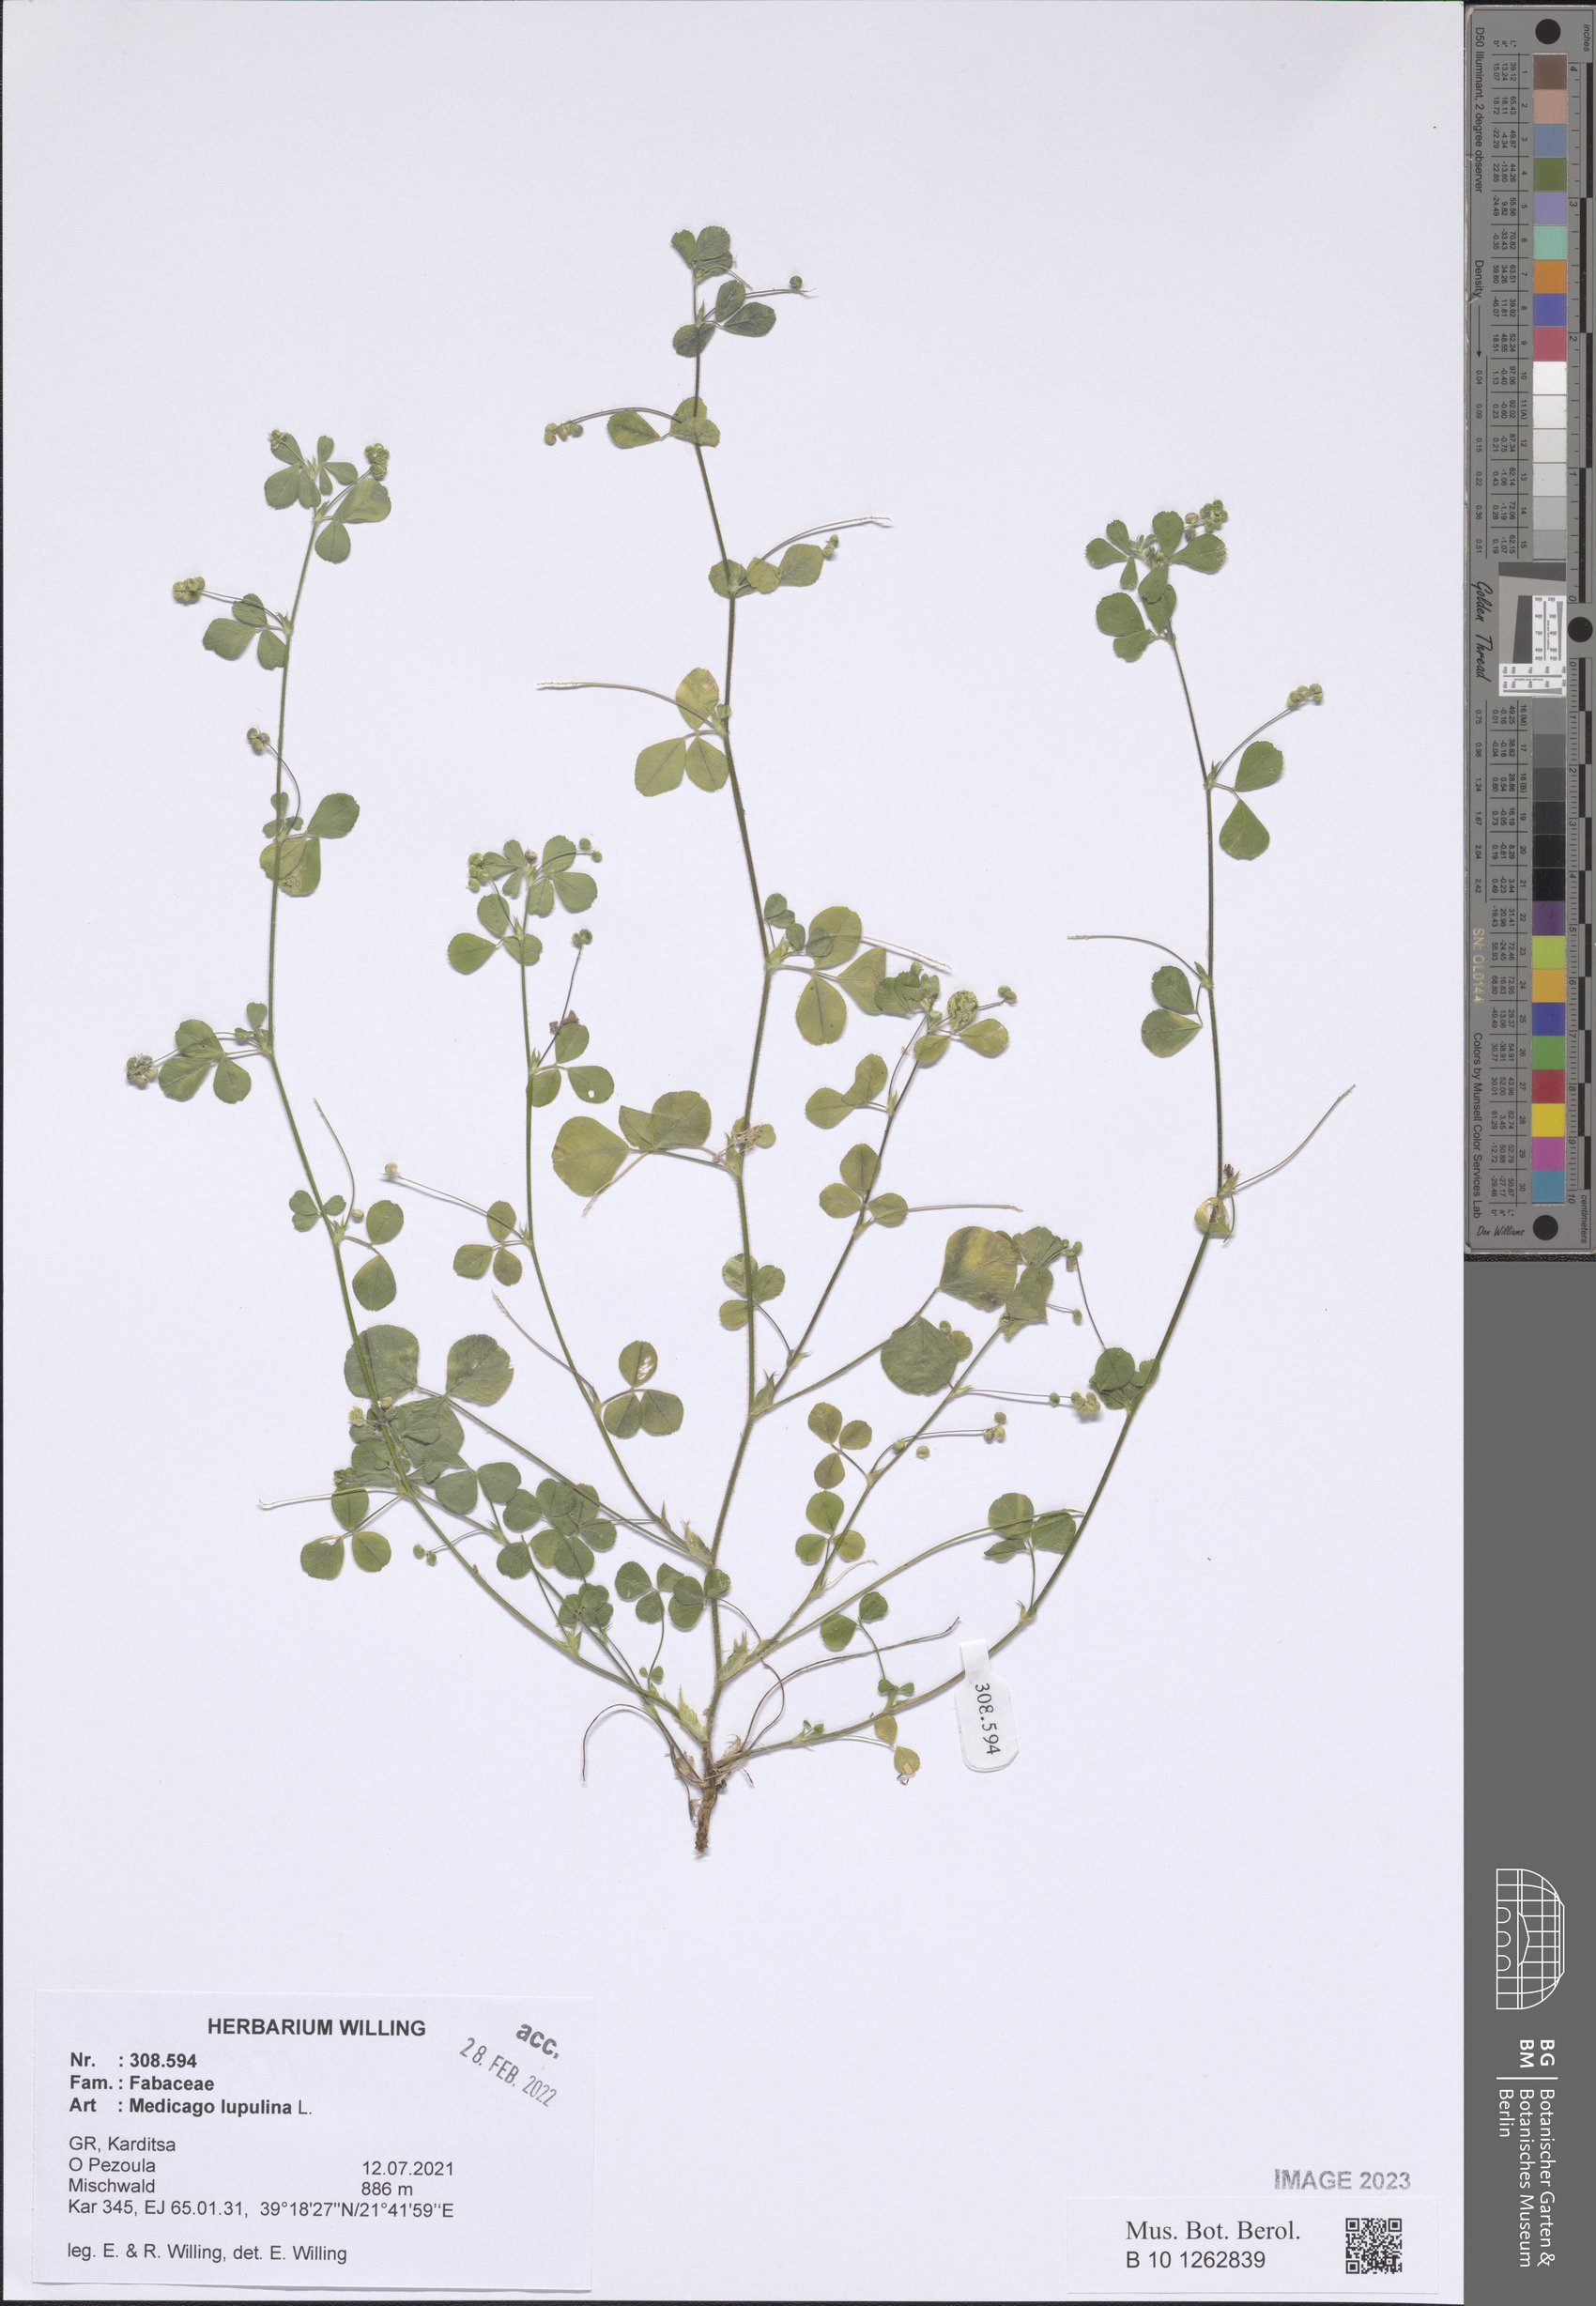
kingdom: Plantae
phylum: Tracheophyta
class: Magnoliopsida
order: Fabales
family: Fabaceae
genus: Medicago
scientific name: Medicago lupulina
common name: Black medick
